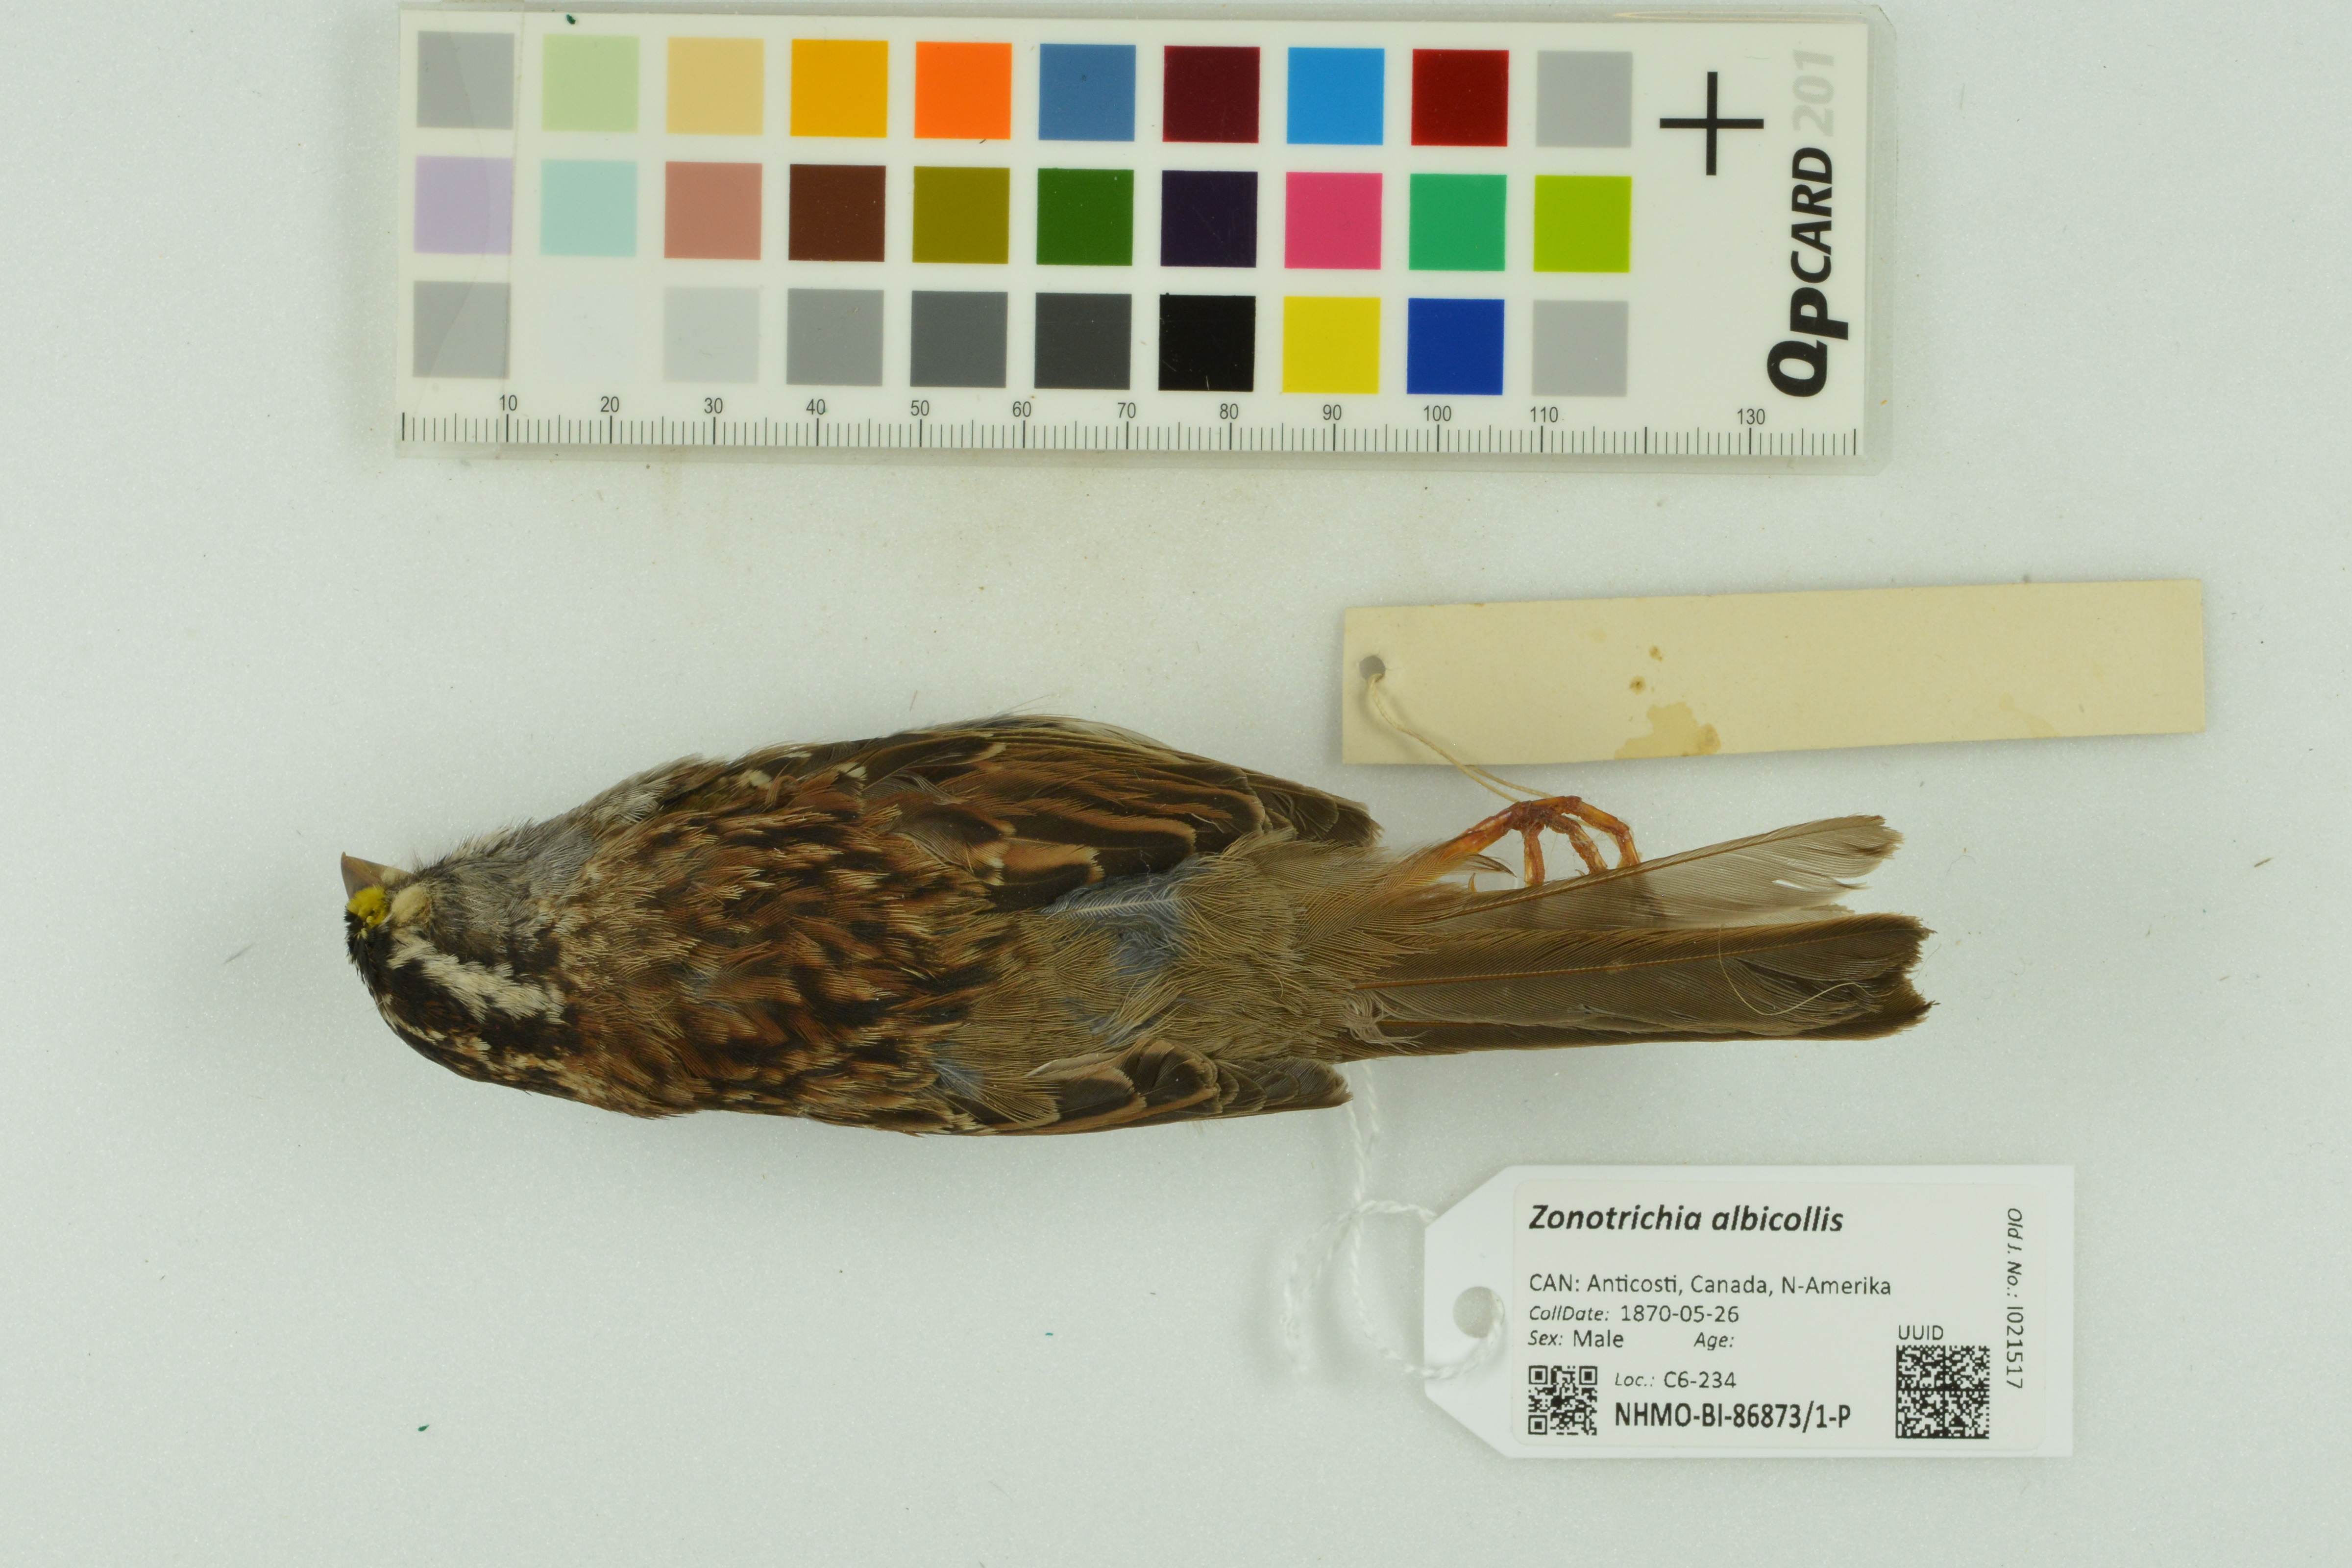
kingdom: Animalia
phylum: Chordata
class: Aves
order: Passeriformes
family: Passerellidae
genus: Zonotrichia
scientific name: Zonotrichia albicollis
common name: White-throated sparrow
